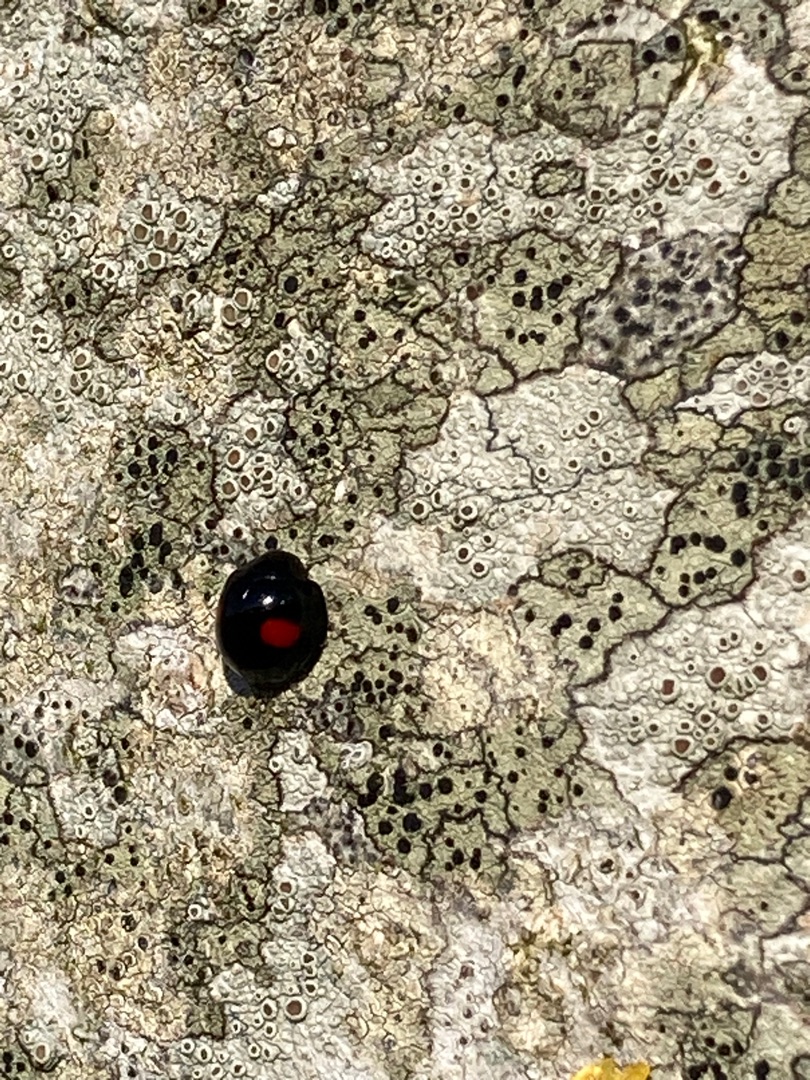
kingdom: Animalia
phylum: Arthropoda
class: Insecta
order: Coleoptera
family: Coccinellidae
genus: Chilocorus
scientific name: Chilocorus renipustulatus
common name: Askemariehøne
